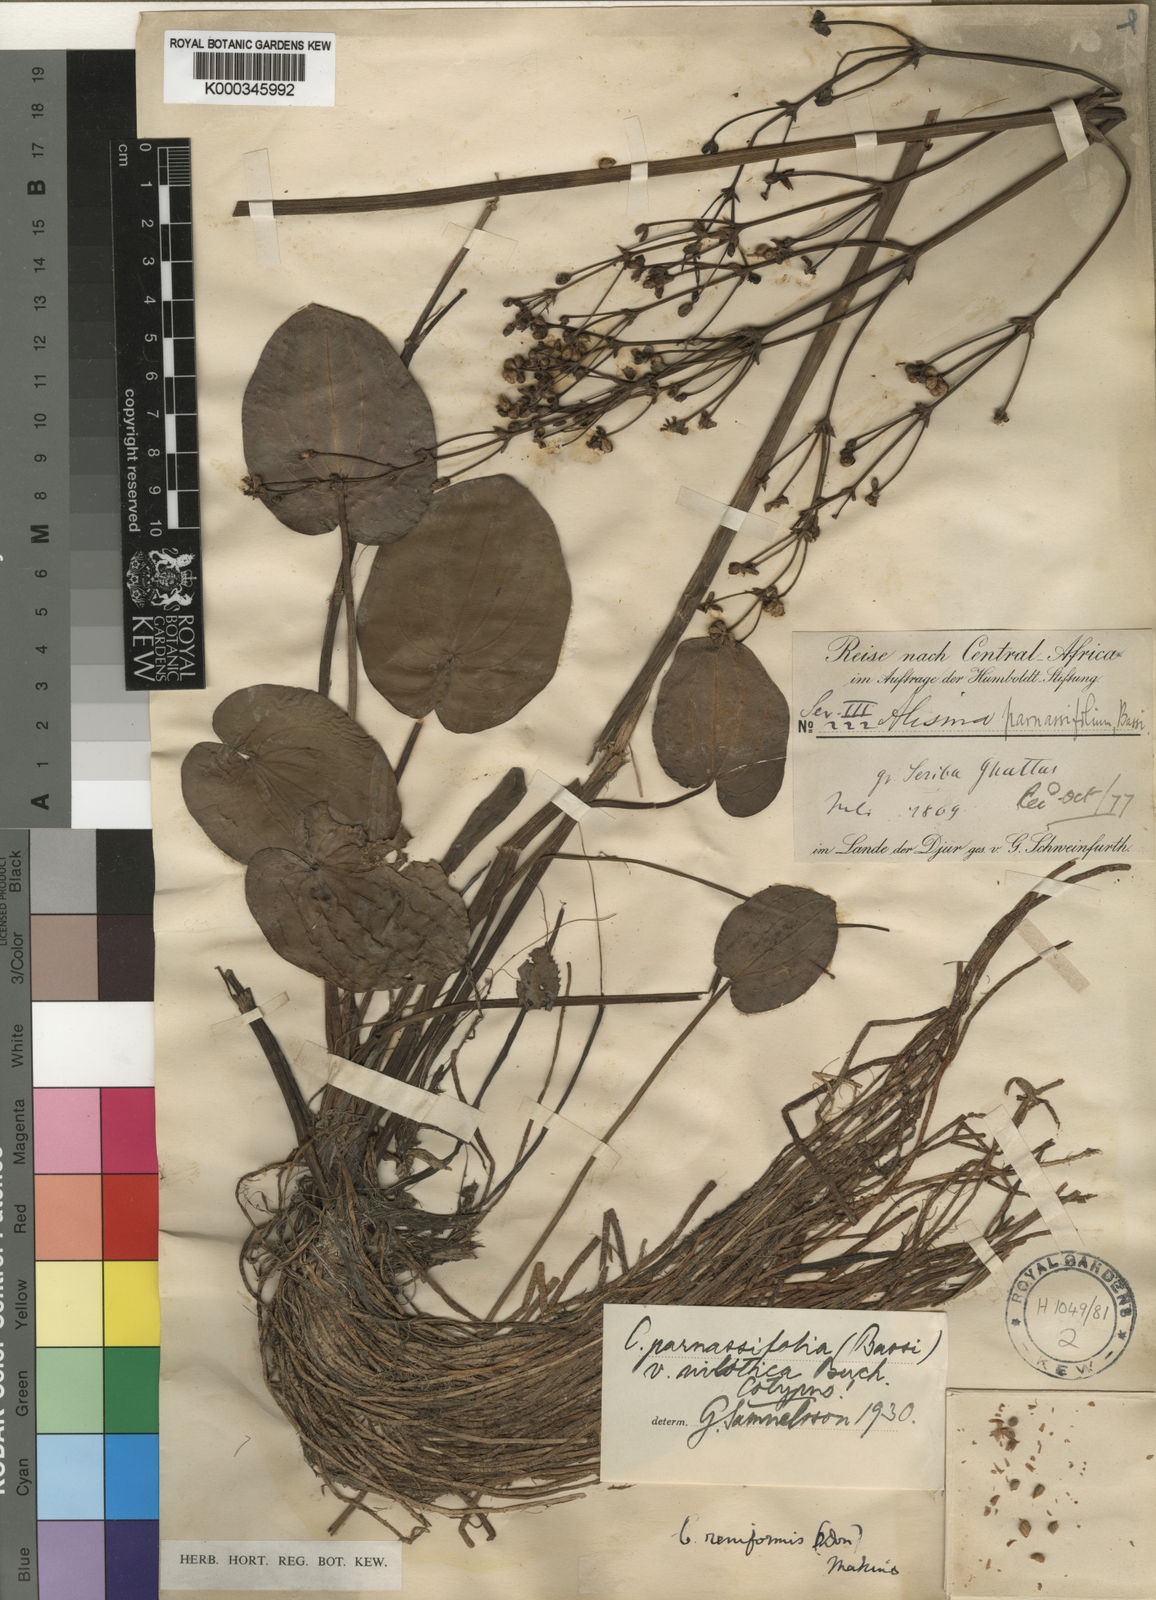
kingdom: Plantae
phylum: Tracheophyta
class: Liliopsida
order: Alismatales
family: Alismataceae
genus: Caldesia
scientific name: Caldesia parnassifolia
